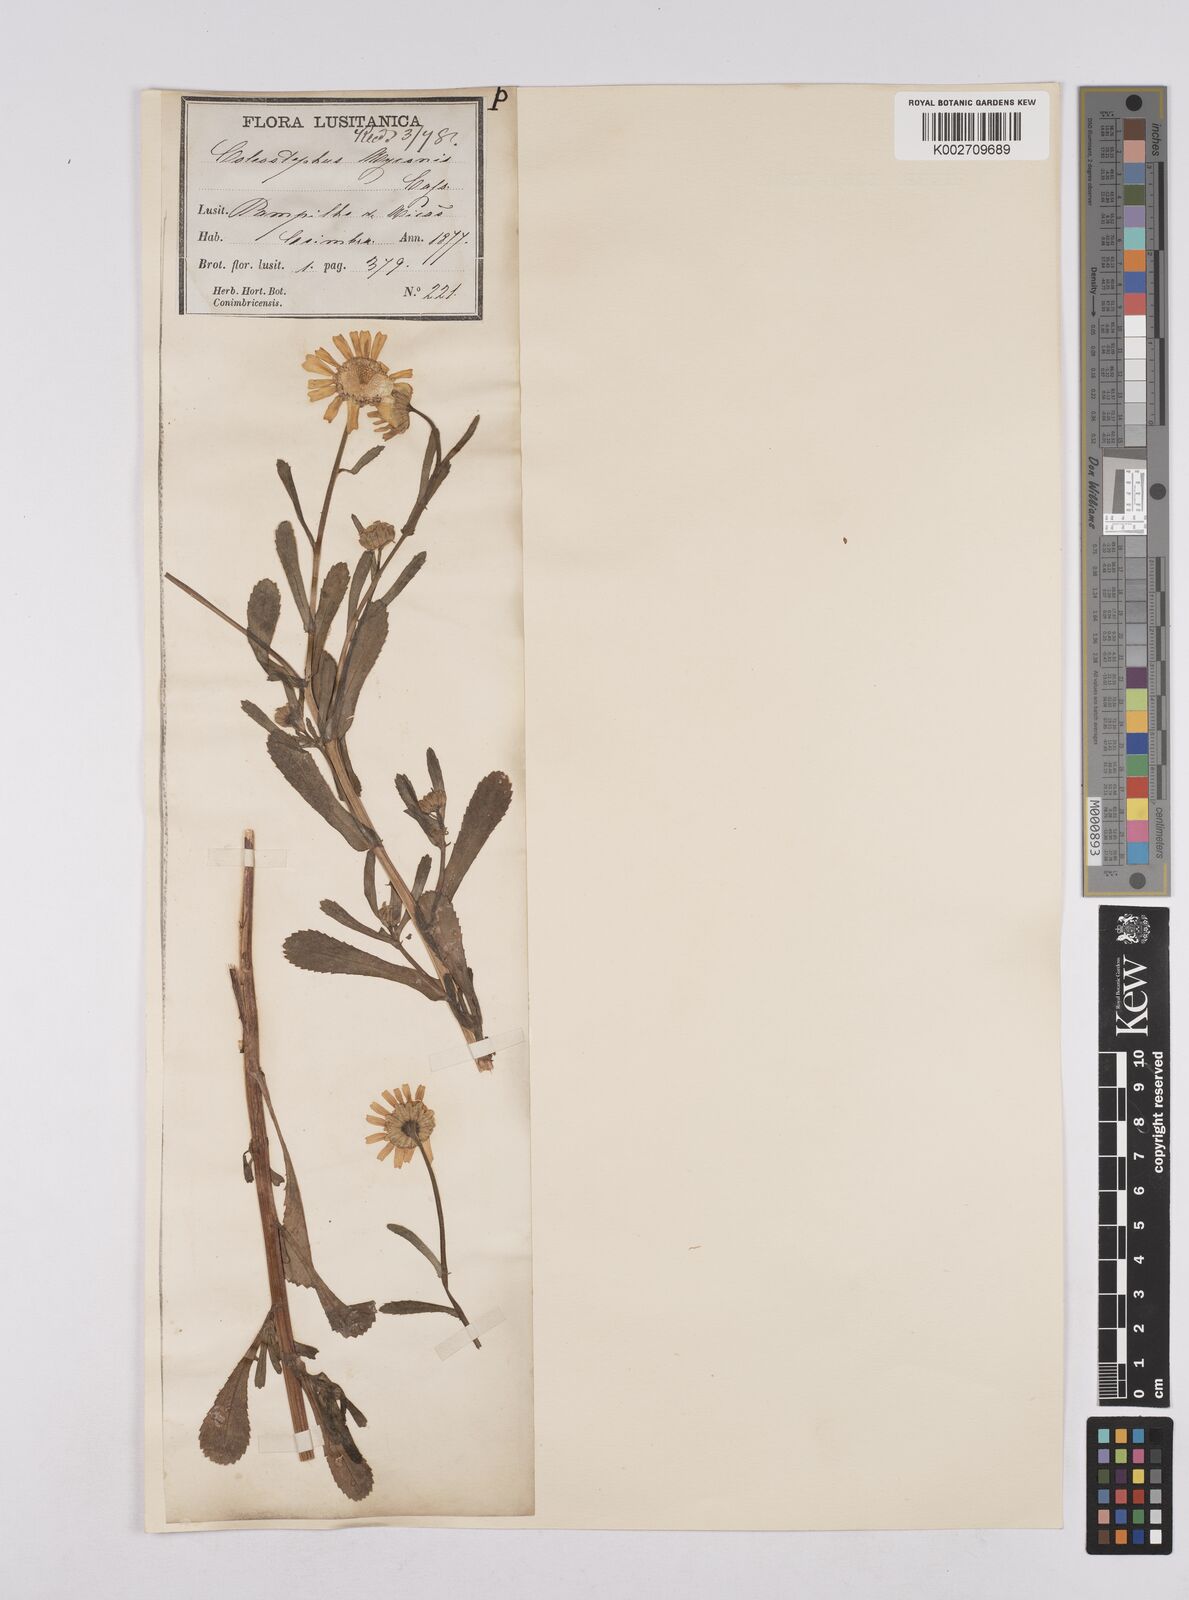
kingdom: Plantae
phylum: Tracheophyta
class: Magnoliopsida
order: Asterales
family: Asteraceae
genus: Coleostephus
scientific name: Coleostephus myconis
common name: Mediterranean marigold
